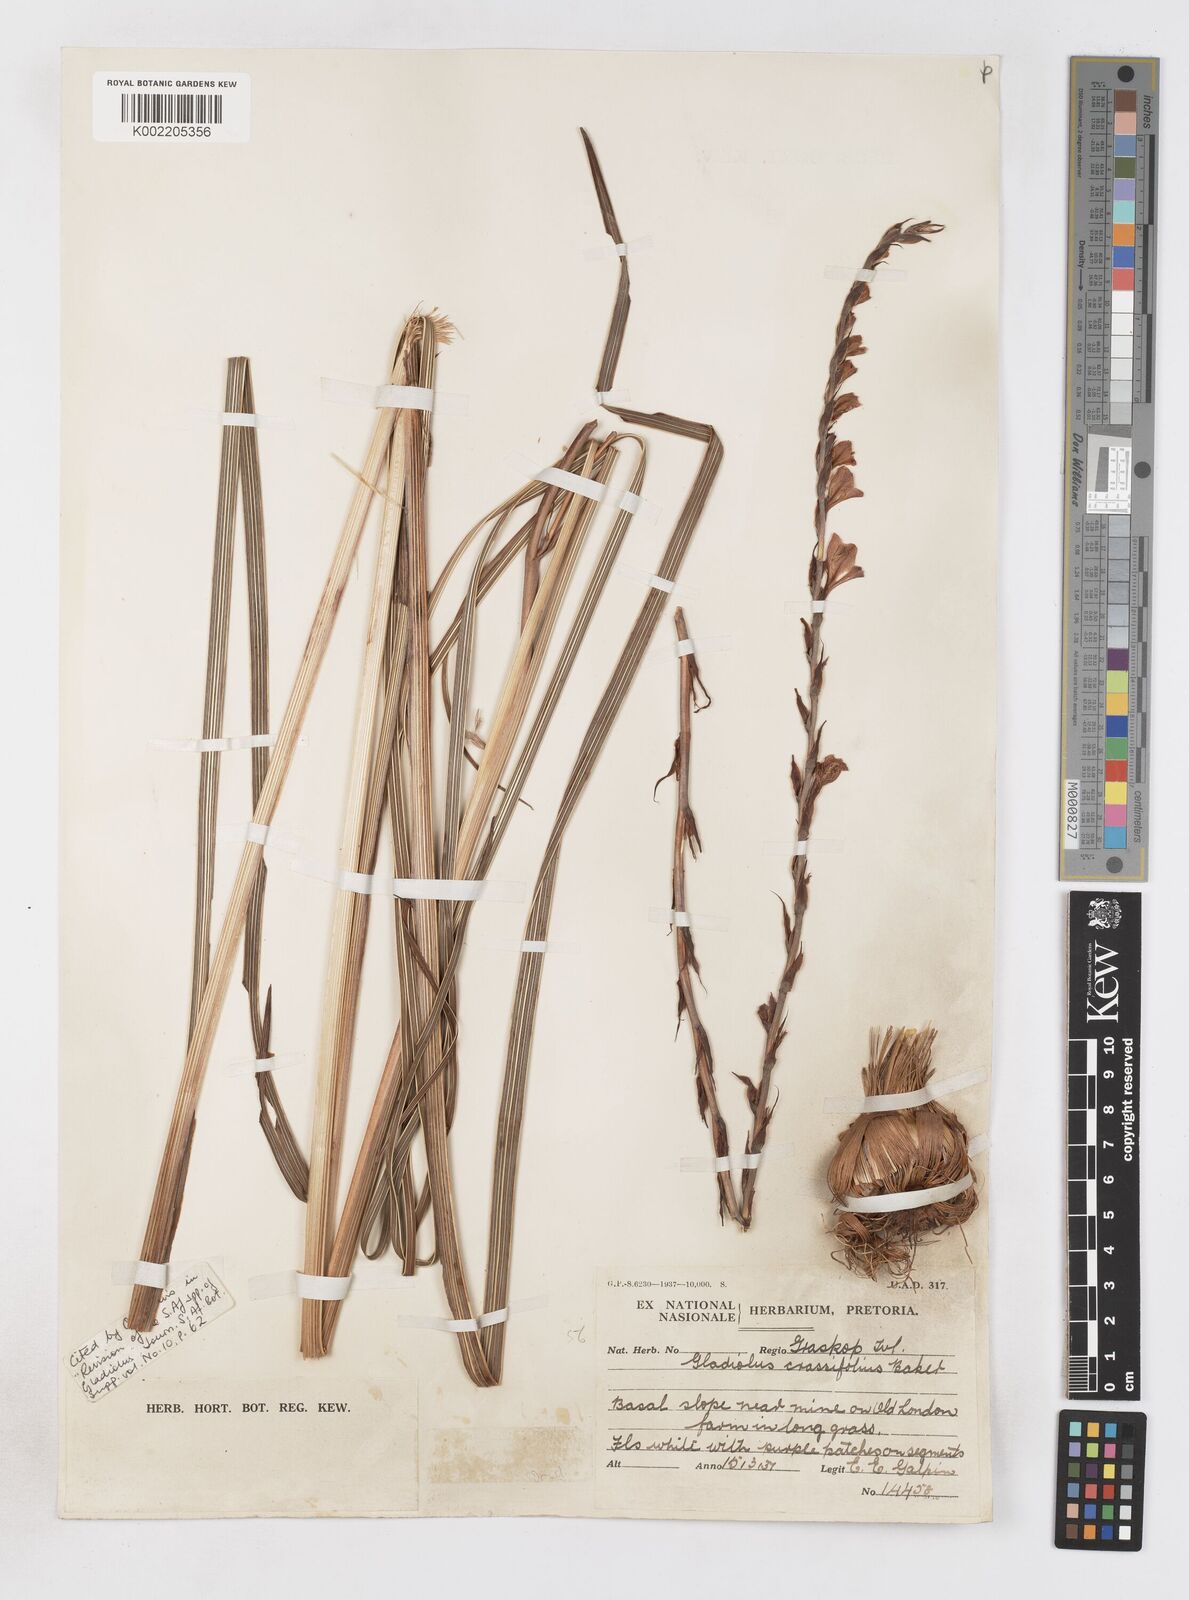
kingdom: Plantae
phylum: Tracheophyta
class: Liliopsida
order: Asparagales
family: Iridaceae
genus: Gladiolus
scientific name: Gladiolus crassifolius
